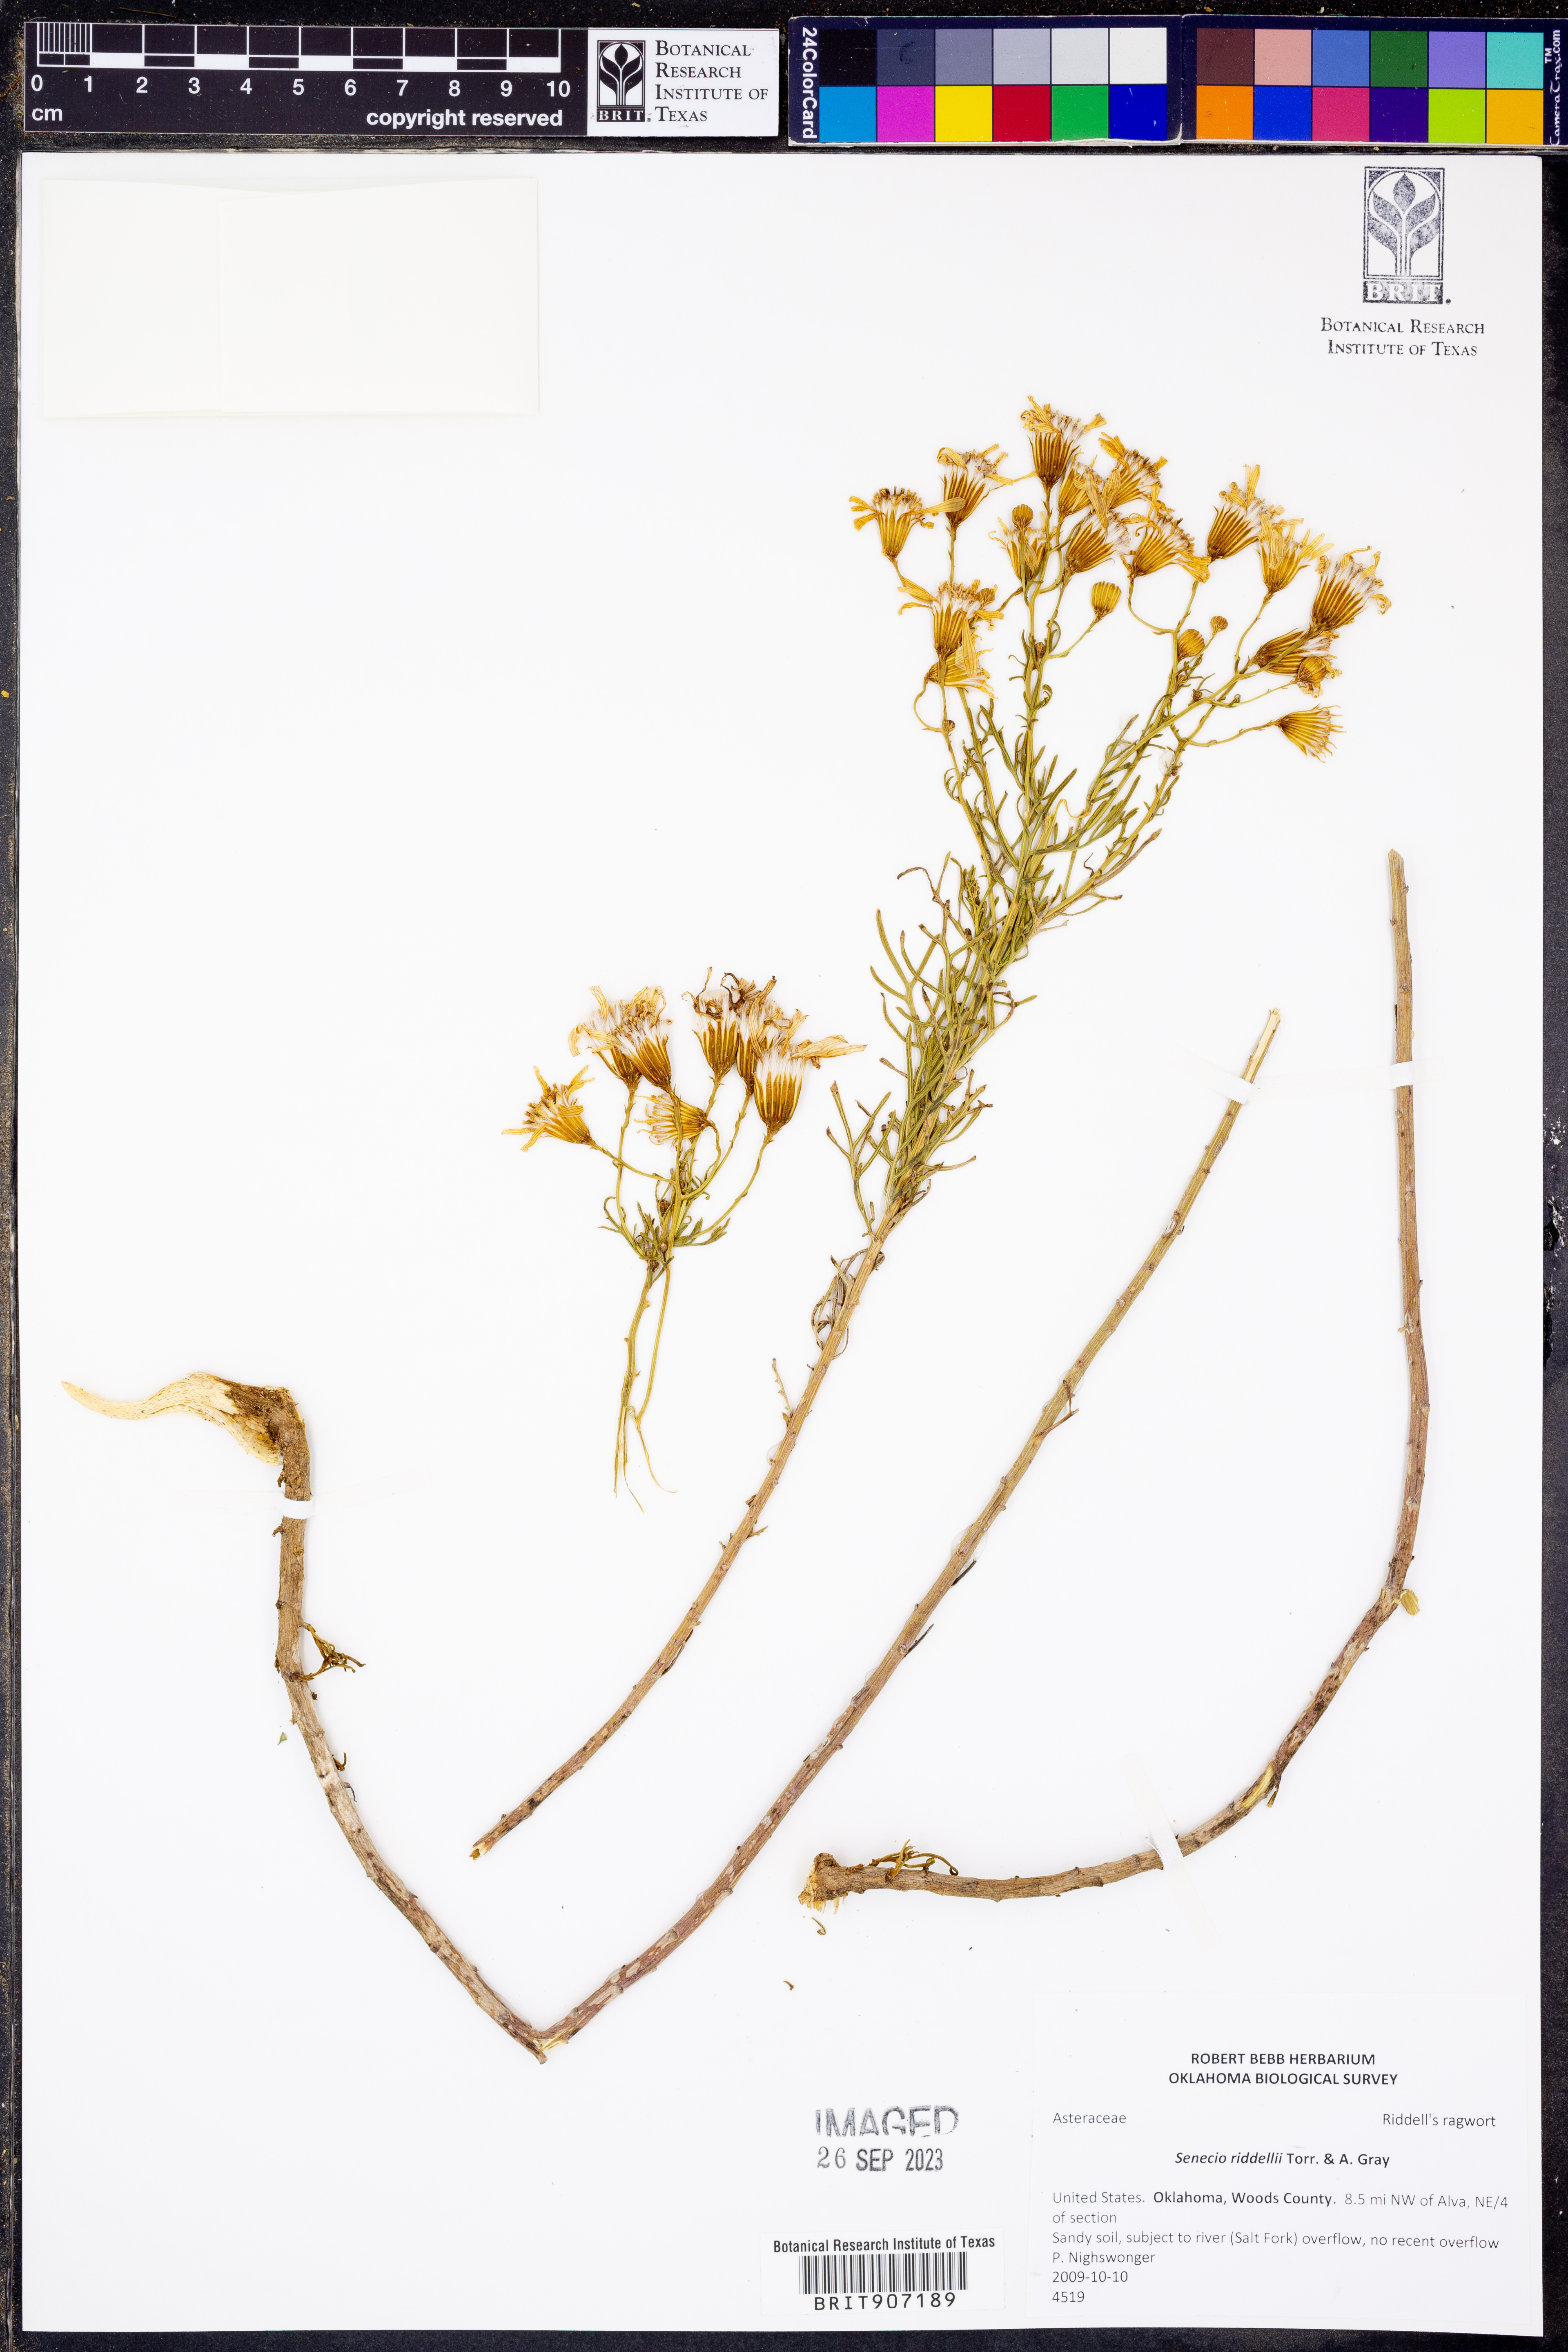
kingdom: Plantae
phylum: Tracheophyta
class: Magnoliopsida
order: Asterales
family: Asteraceae
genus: Senecio
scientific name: Senecio riddellii
